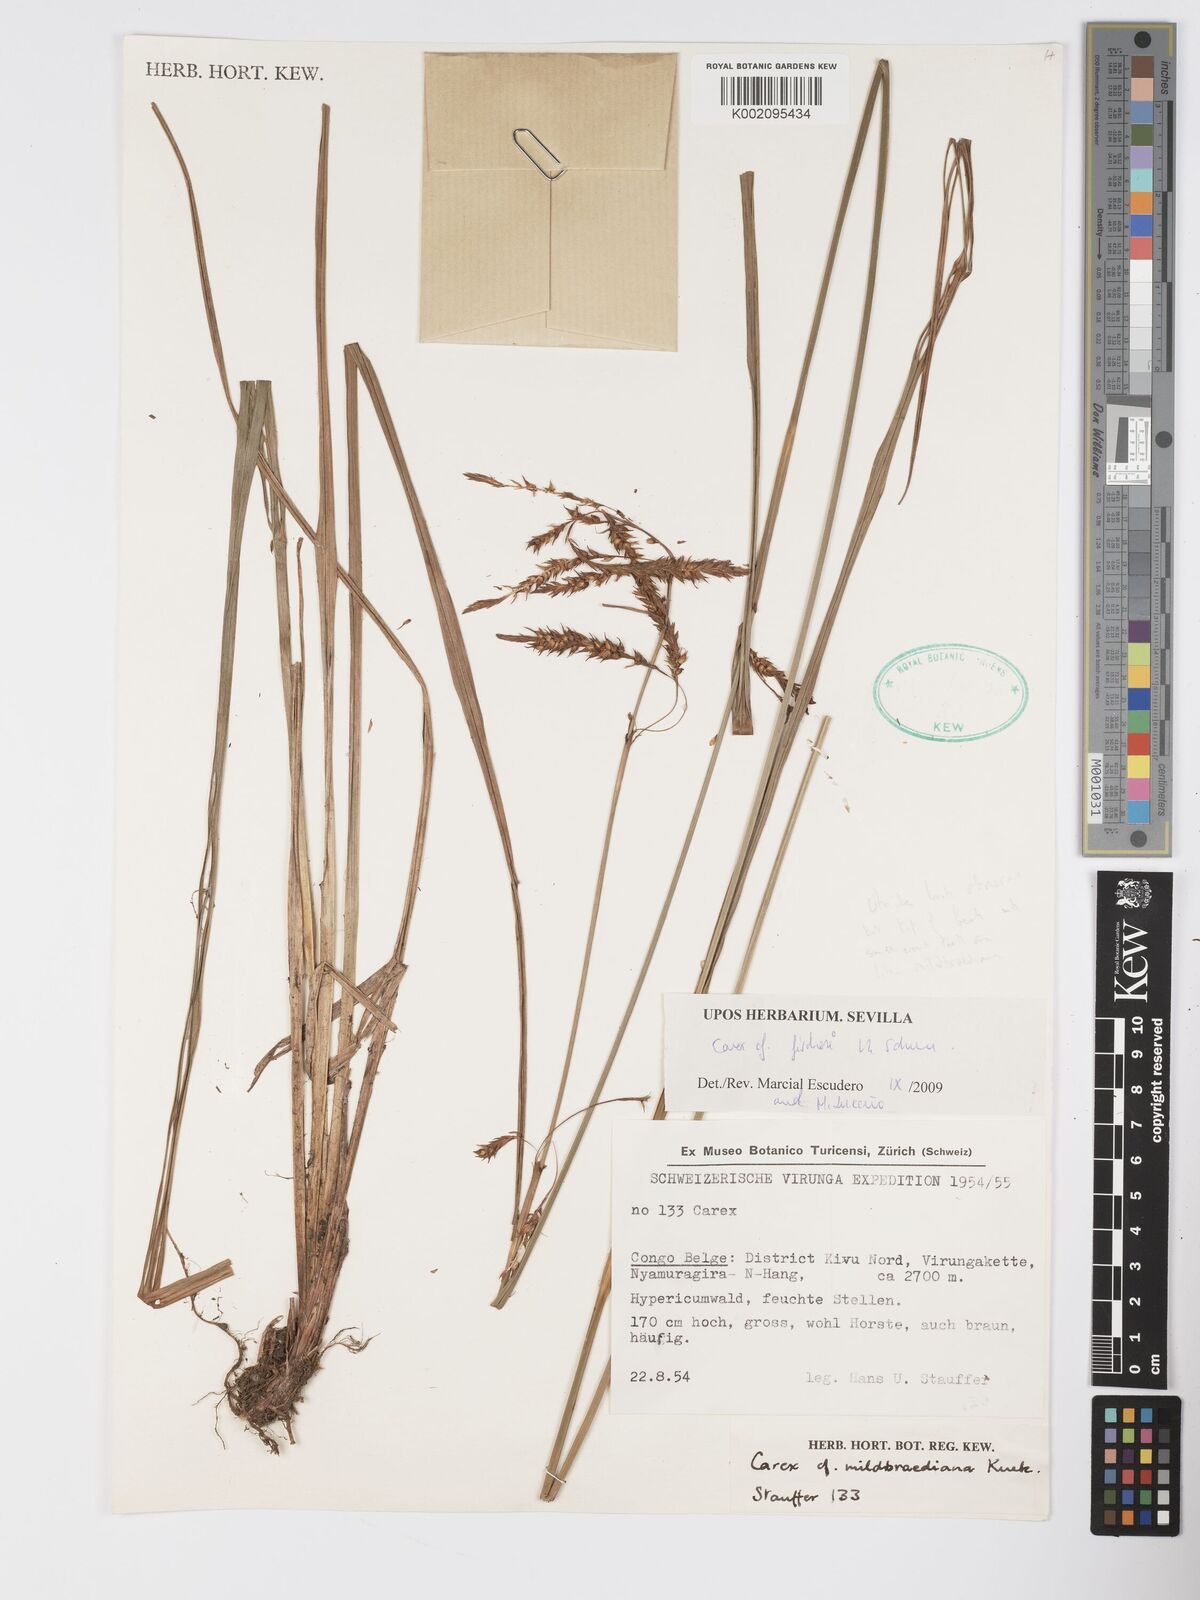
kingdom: Plantae
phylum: Tracheophyta
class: Liliopsida
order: Poales
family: Cyperaceae
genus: Carex
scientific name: Carex fischeri
